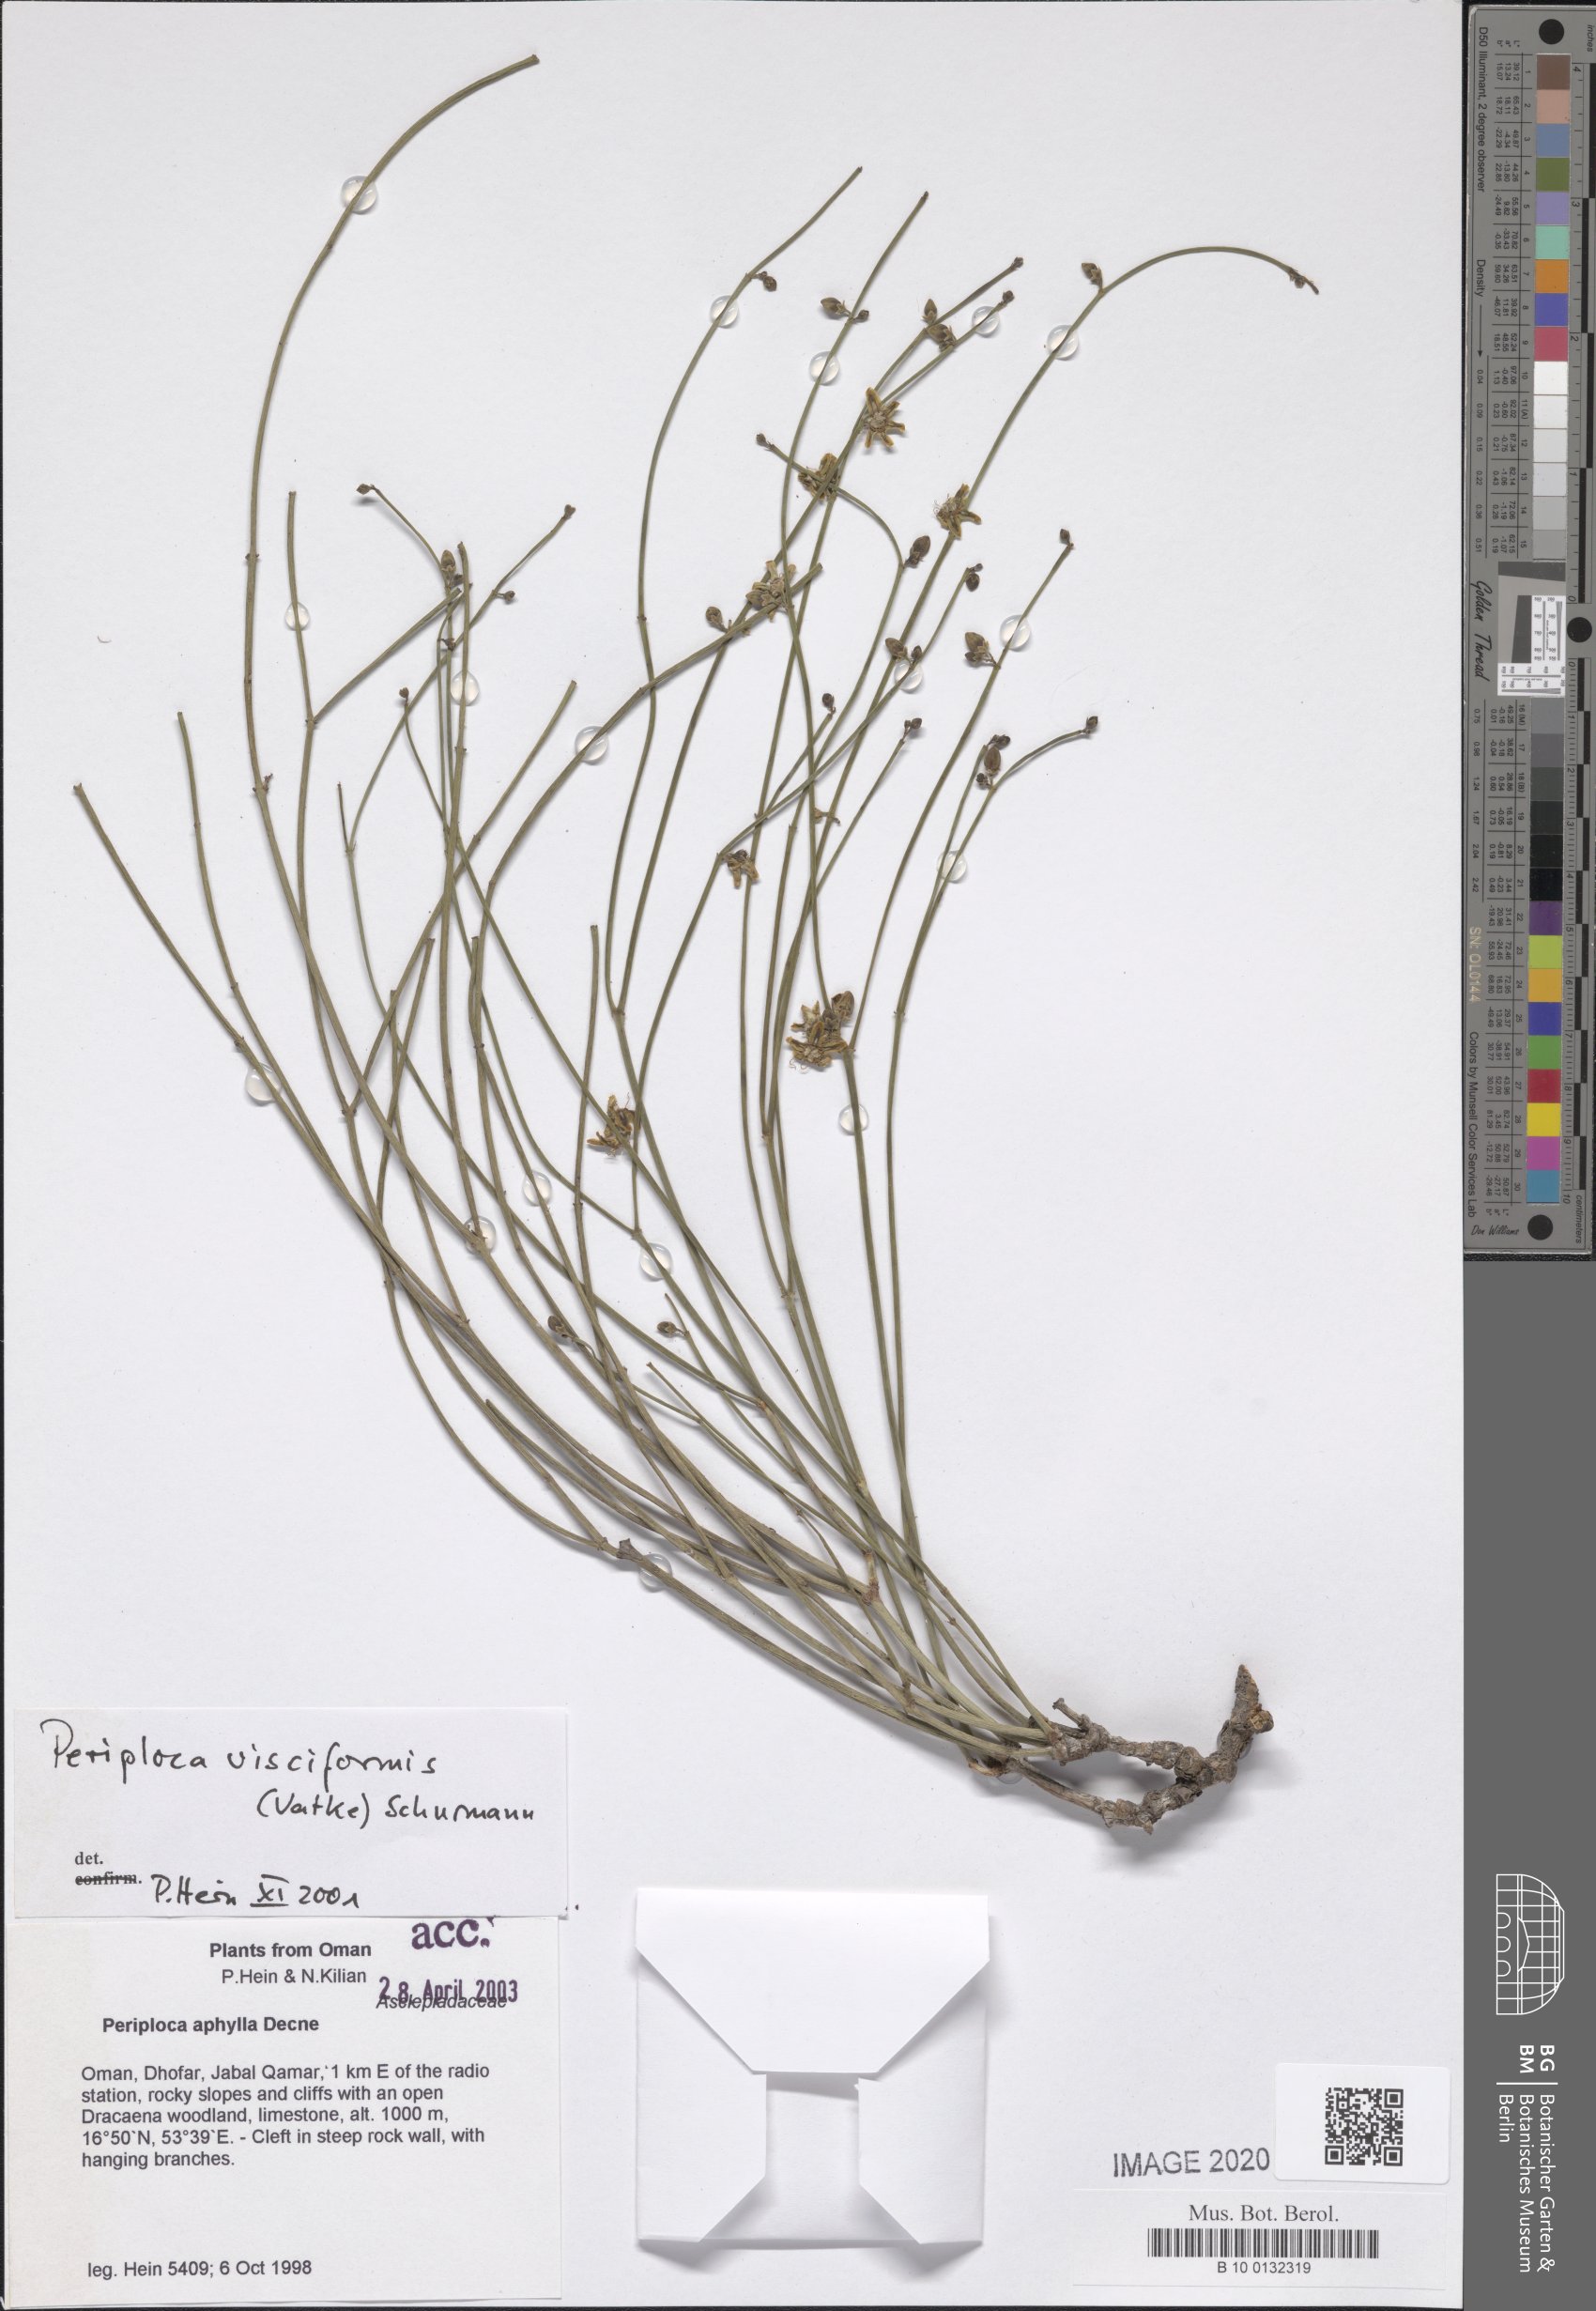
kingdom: Plantae
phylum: Tracheophyta
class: Magnoliopsida
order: Gentianales
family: Apocynaceae
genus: Periploca
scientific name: Periploca visciformis
